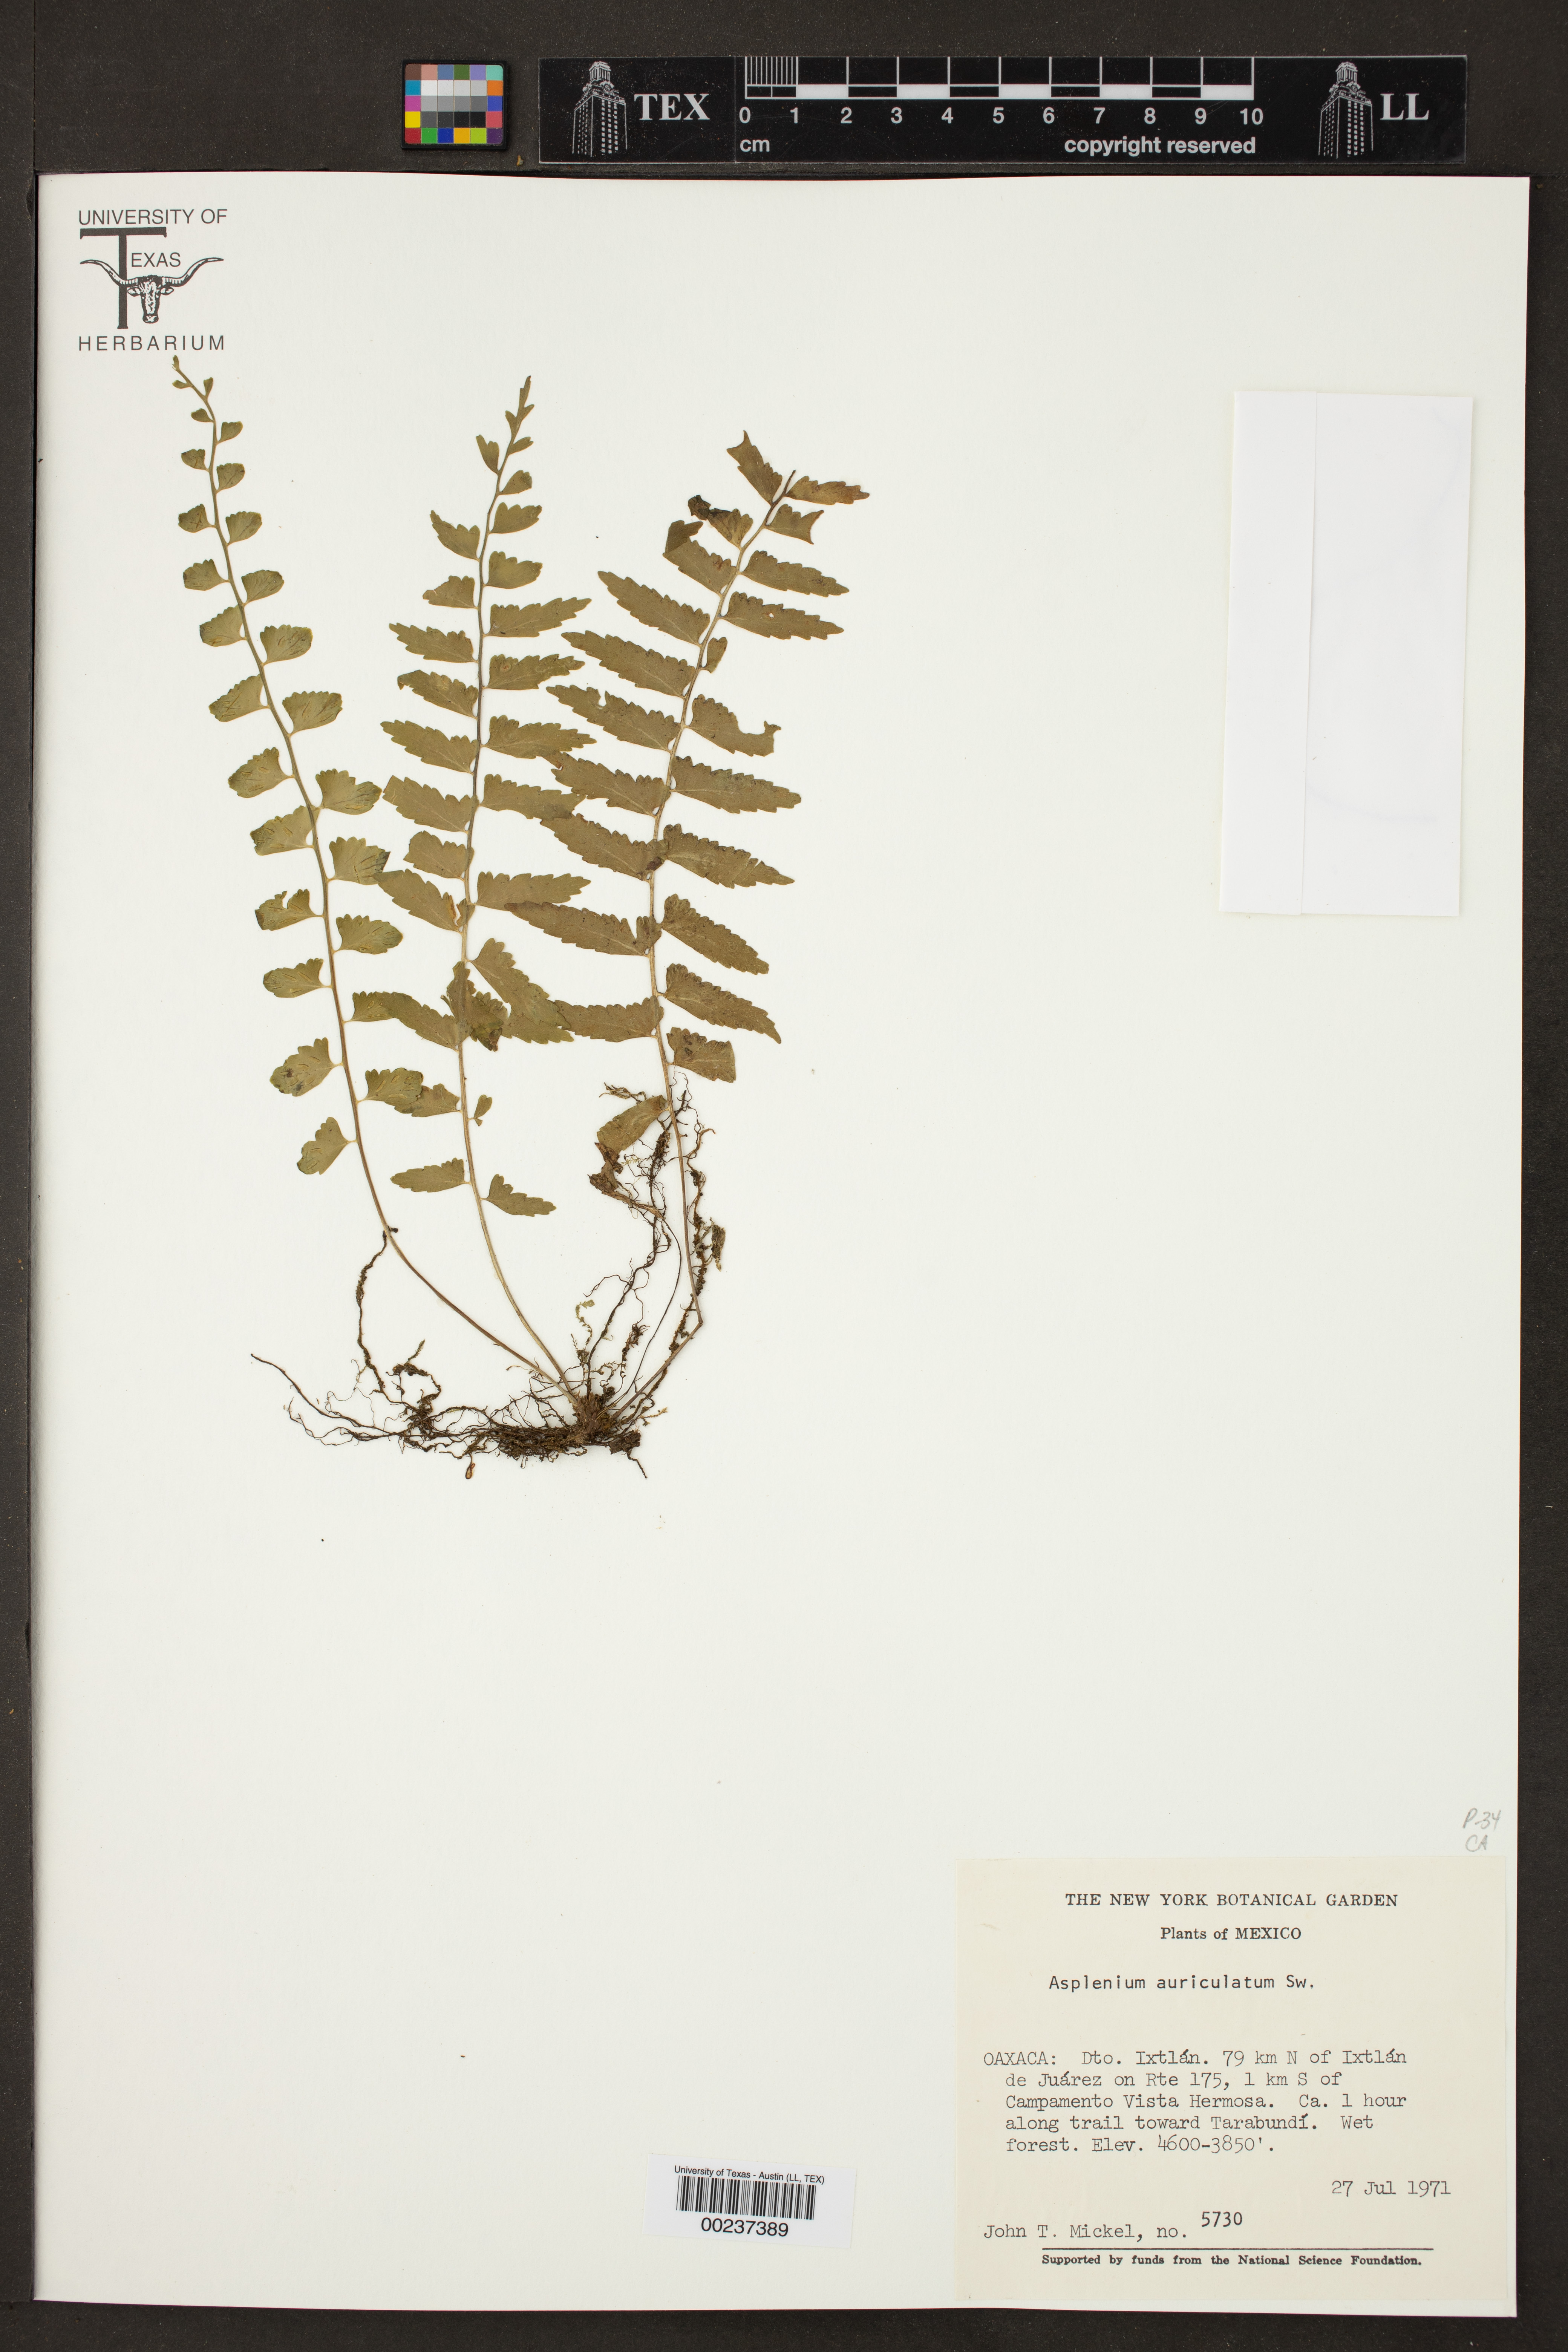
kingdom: Plantae
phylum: Tracheophyta
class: Polypodiopsida
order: Polypodiales
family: Aspleniaceae
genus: Asplenium
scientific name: Asplenium auriculatum
